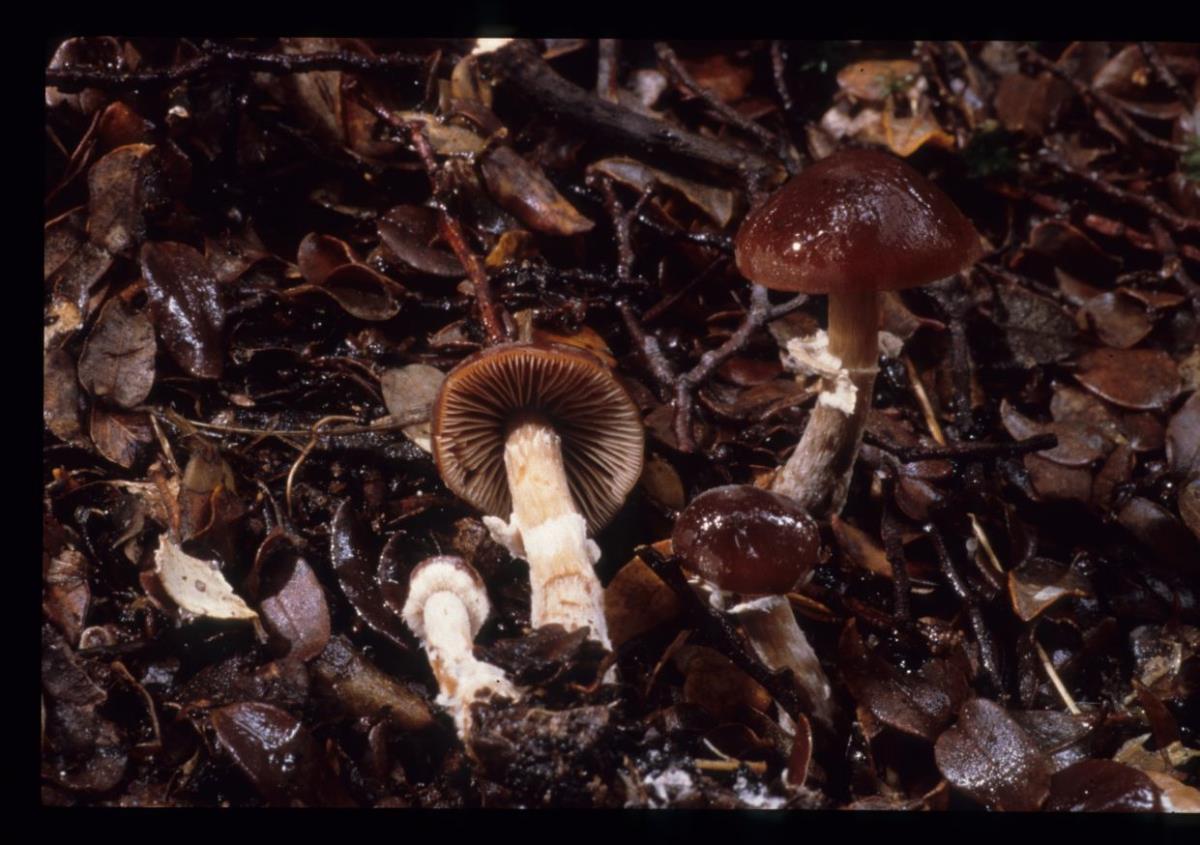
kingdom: Fungi
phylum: Basidiomycota
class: Agaricomycetes
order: Agaricales
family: Bolbitiaceae
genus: Descolea
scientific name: Descolea
